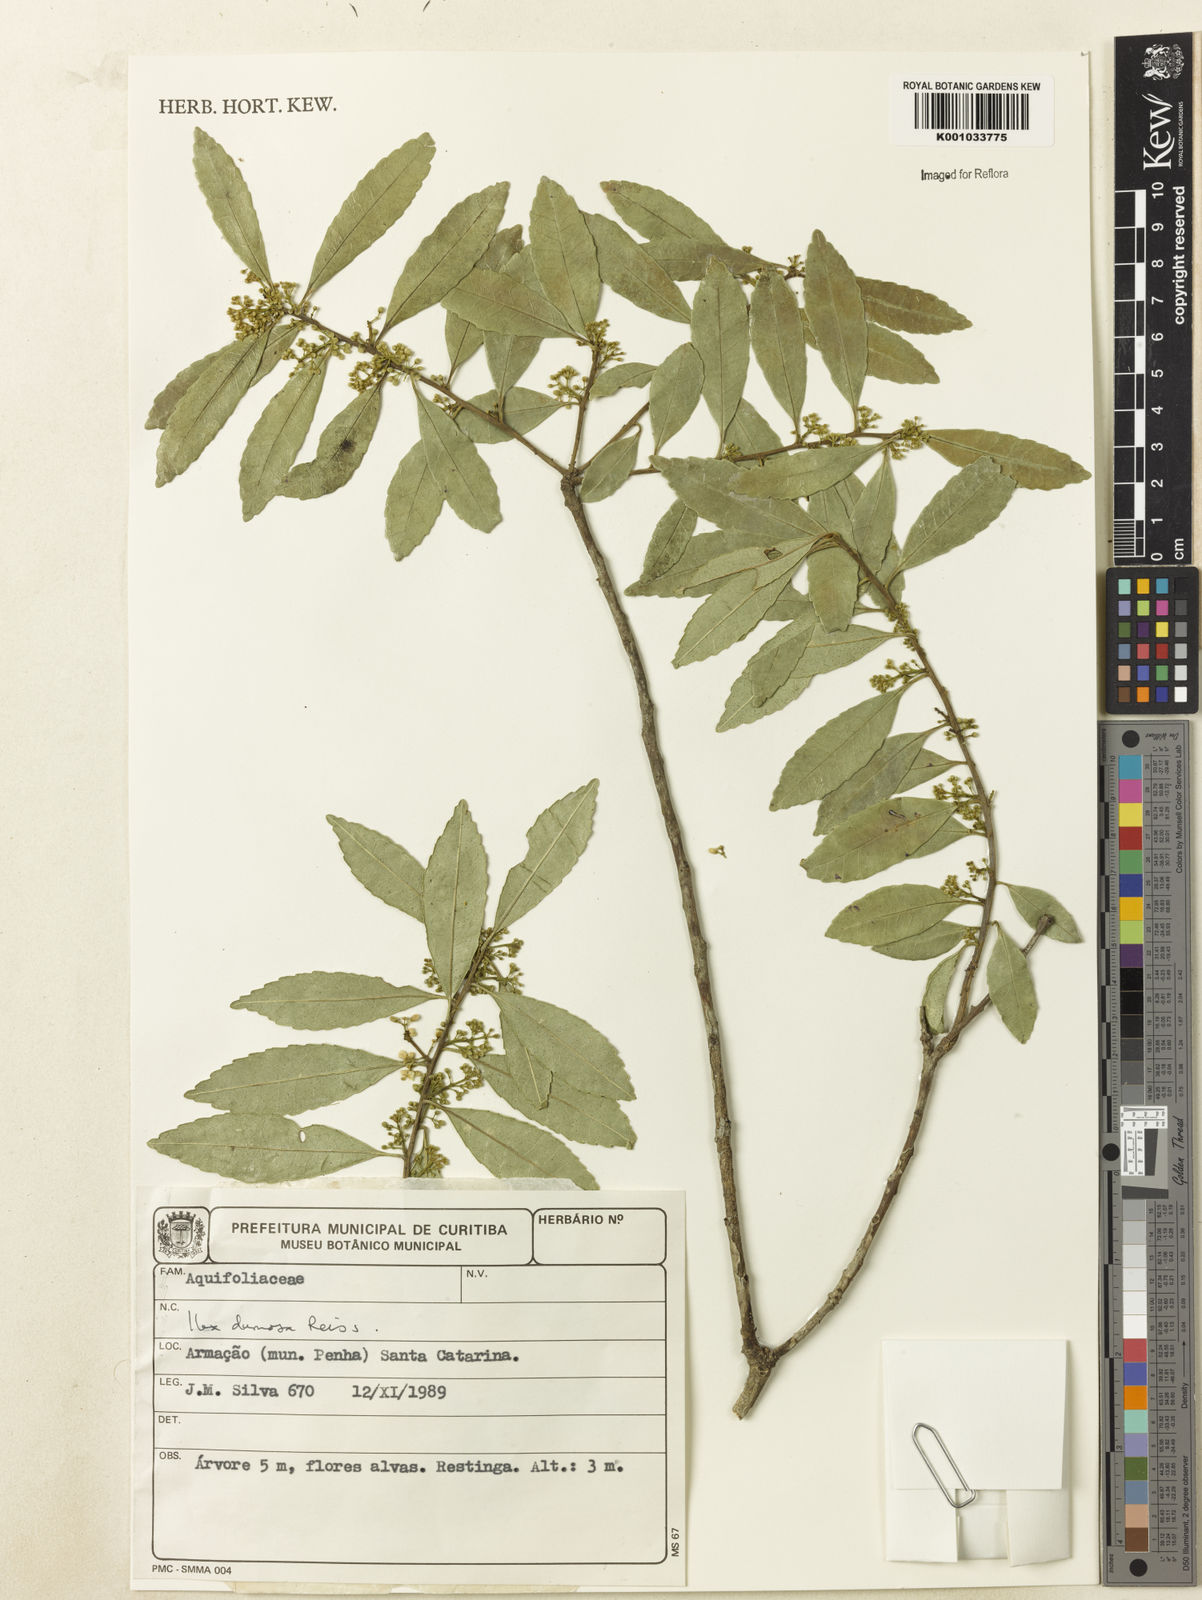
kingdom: Plantae
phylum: Tracheophyta
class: Magnoliopsida
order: Aquifoliales
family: Aquifoliaceae
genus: Ilex
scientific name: Ilex dumosa
